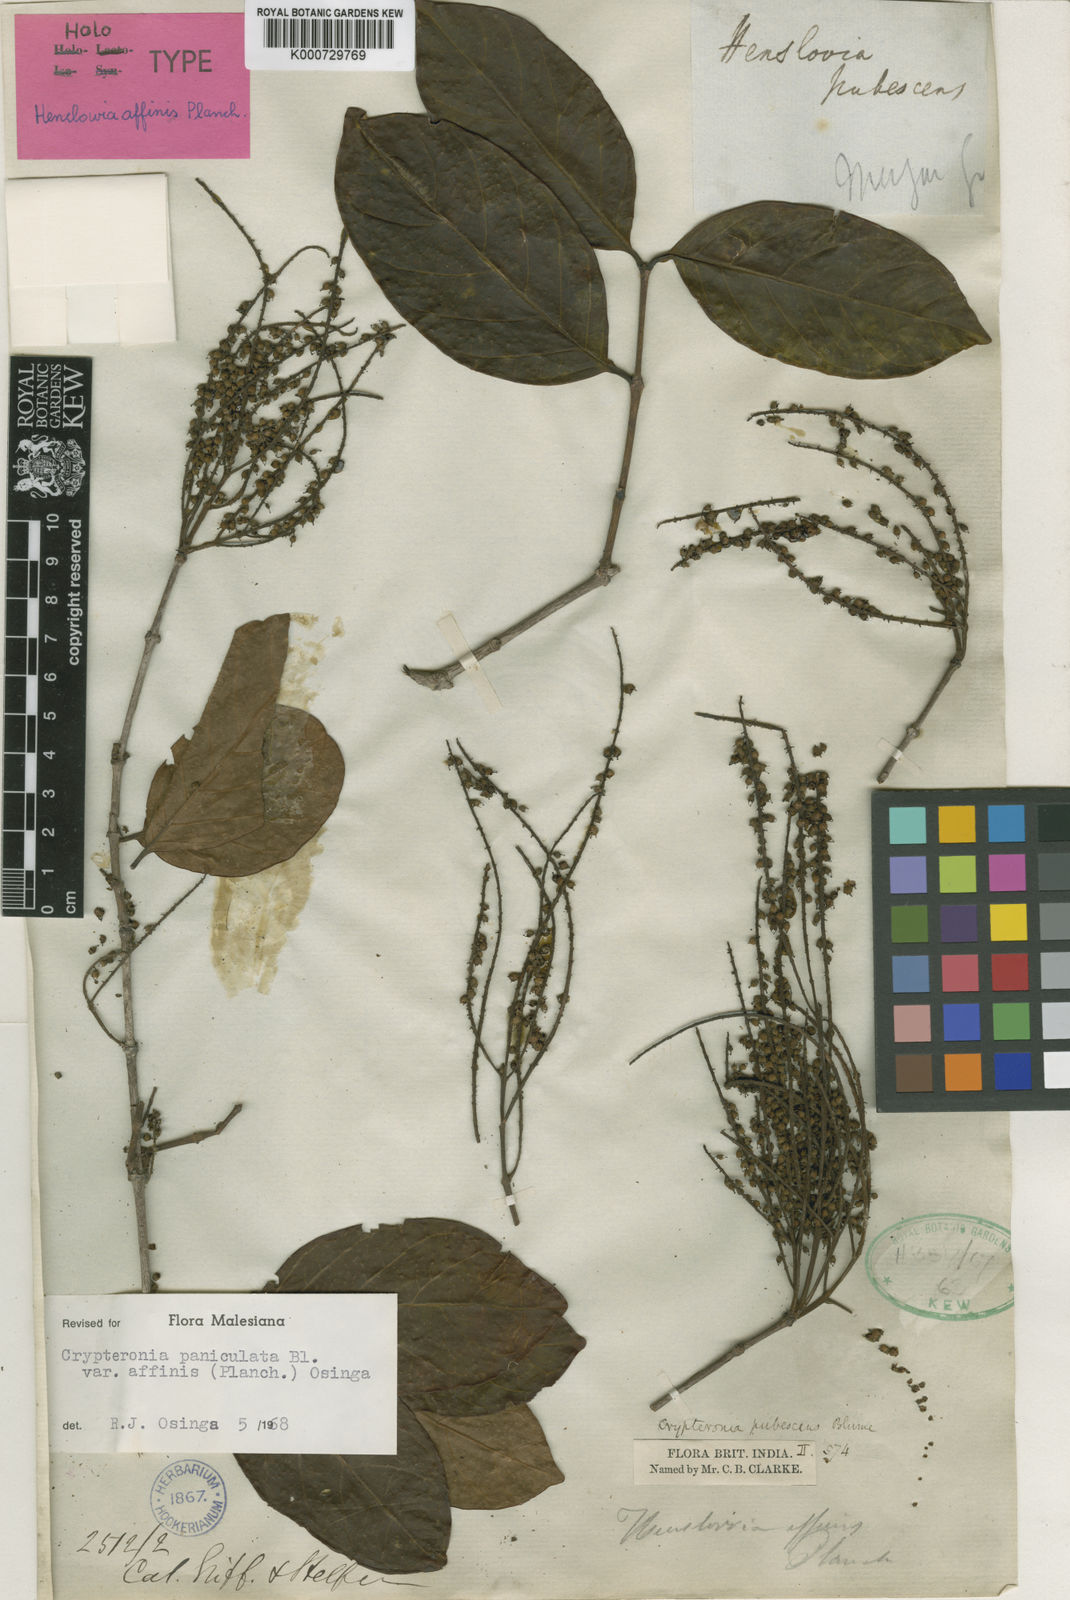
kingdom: Plantae
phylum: Tracheophyta
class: Magnoliopsida
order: Myrtales
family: Crypteroniaceae
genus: Crypteronia
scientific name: Crypteronia paniculata
